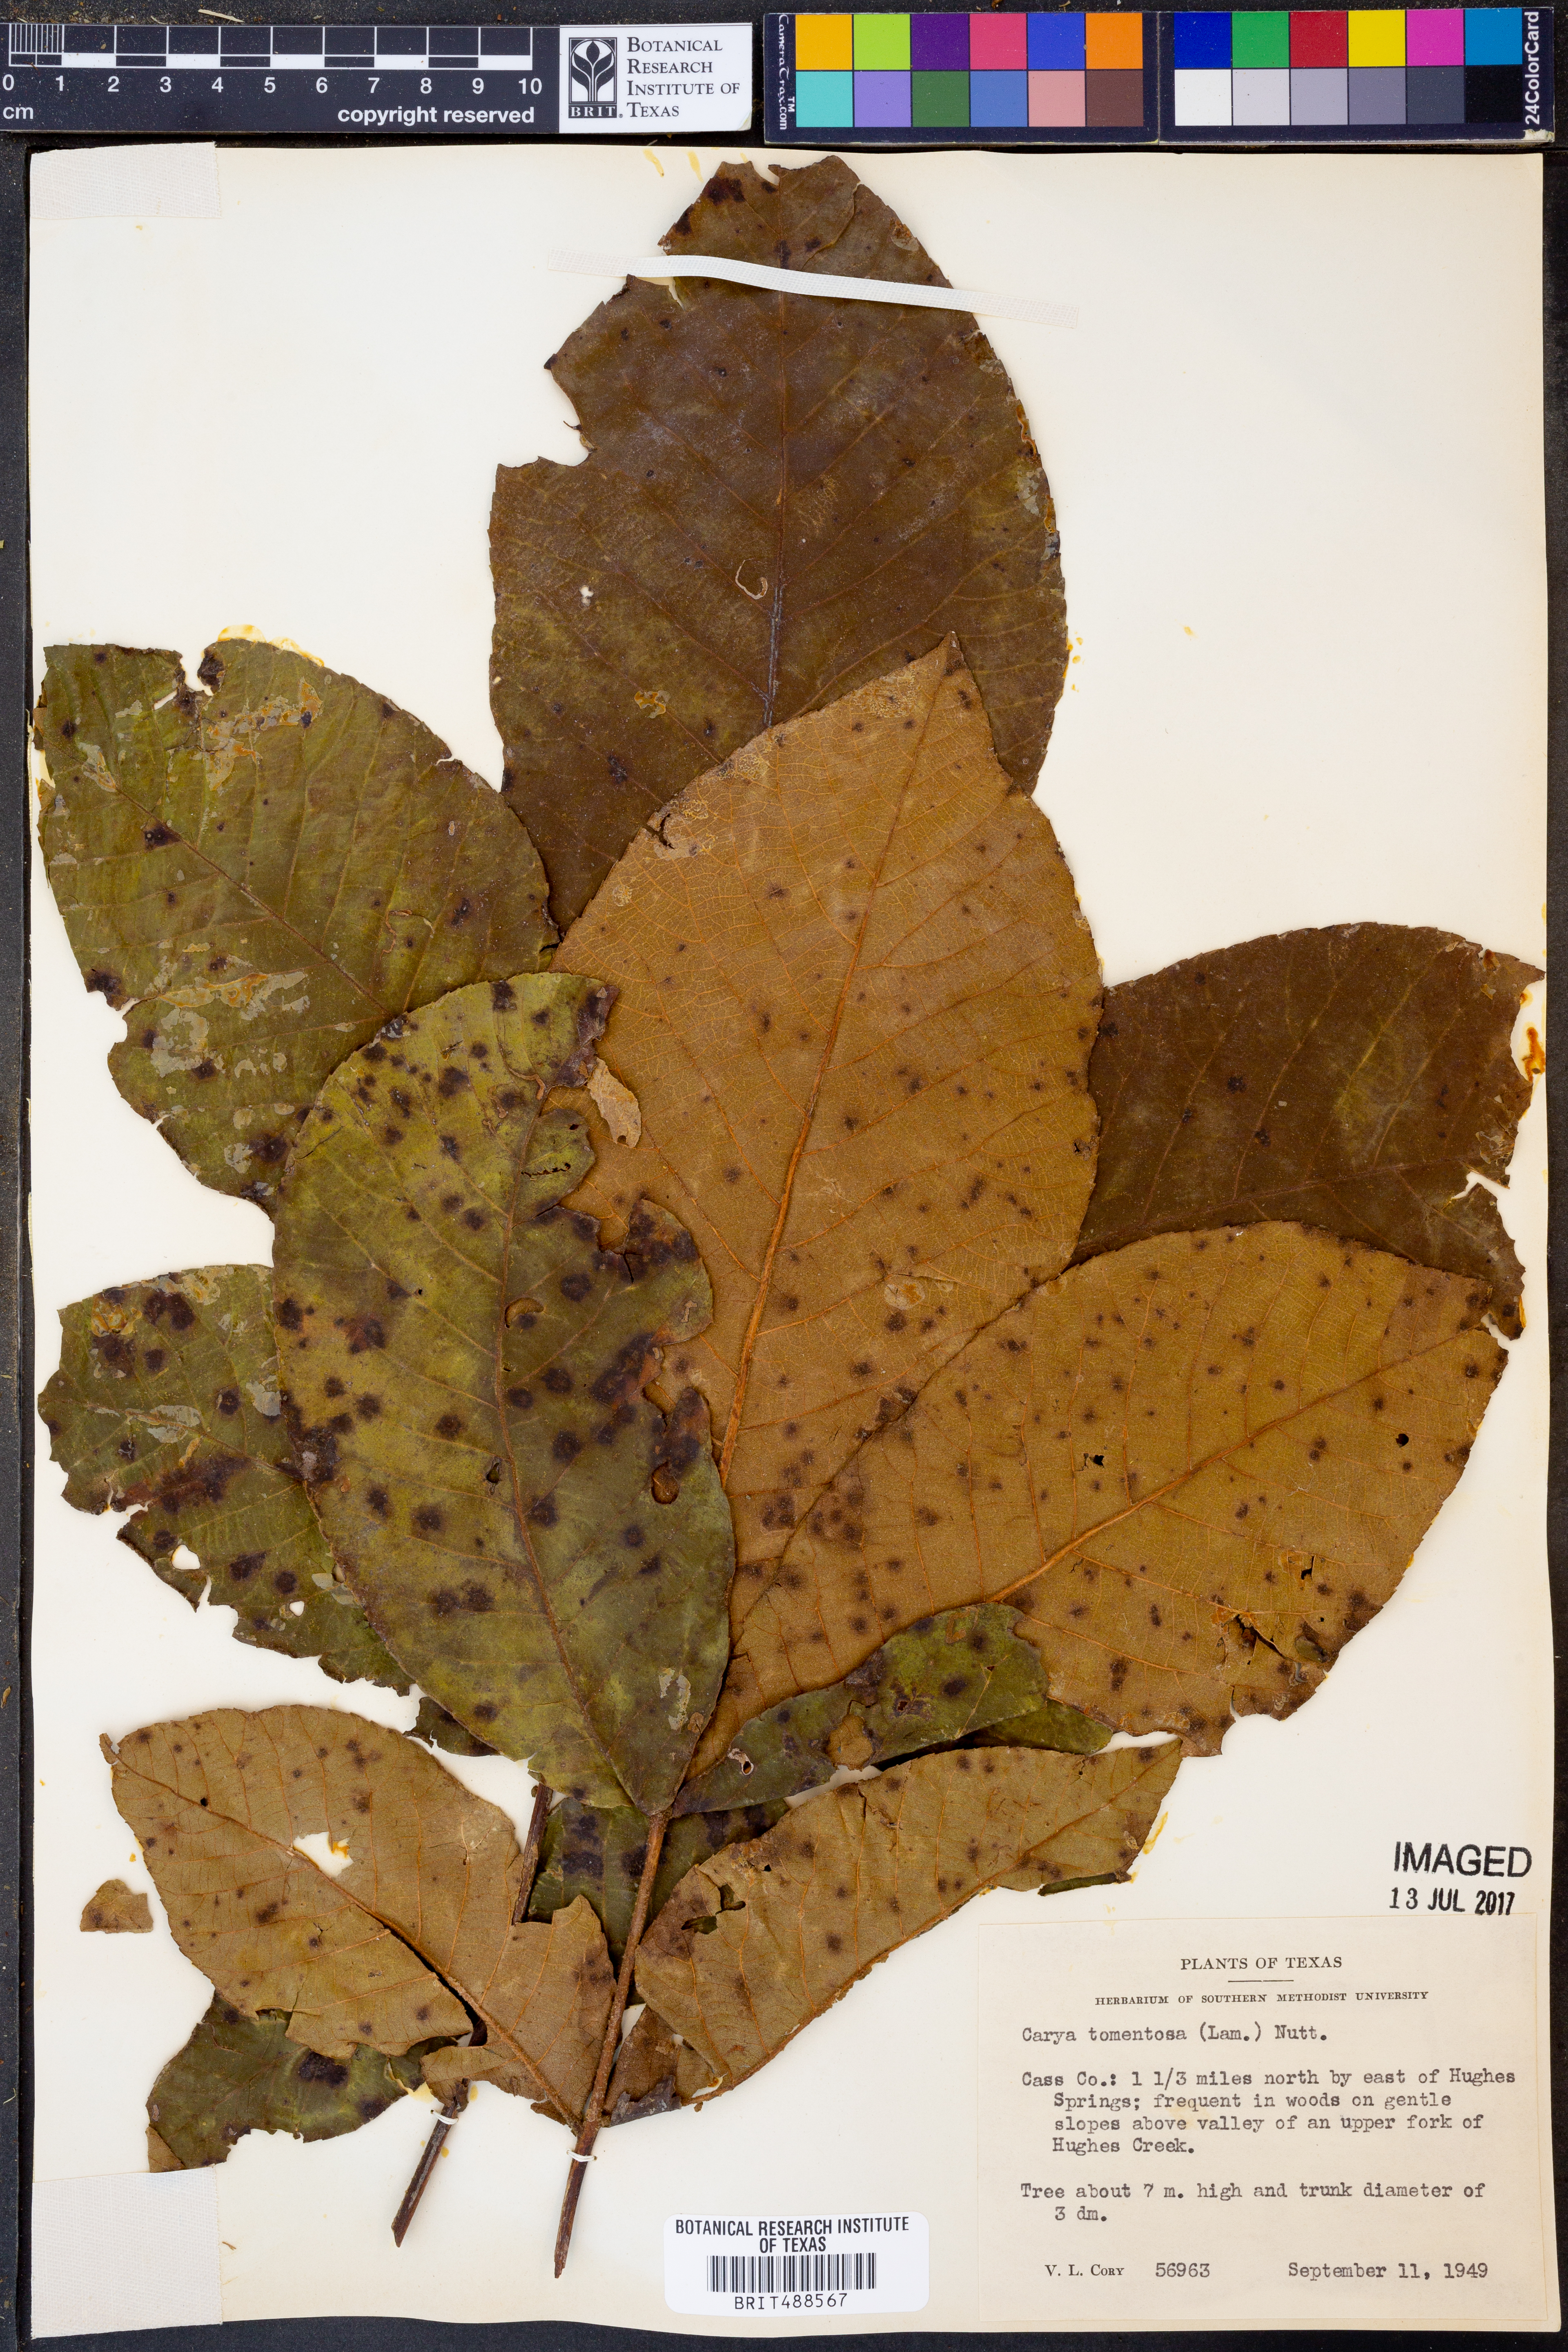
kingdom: Plantae
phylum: Tracheophyta
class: Magnoliopsida
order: Fagales
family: Juglandaceae
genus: Carya
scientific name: Carya alba
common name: Mockernut hickory
